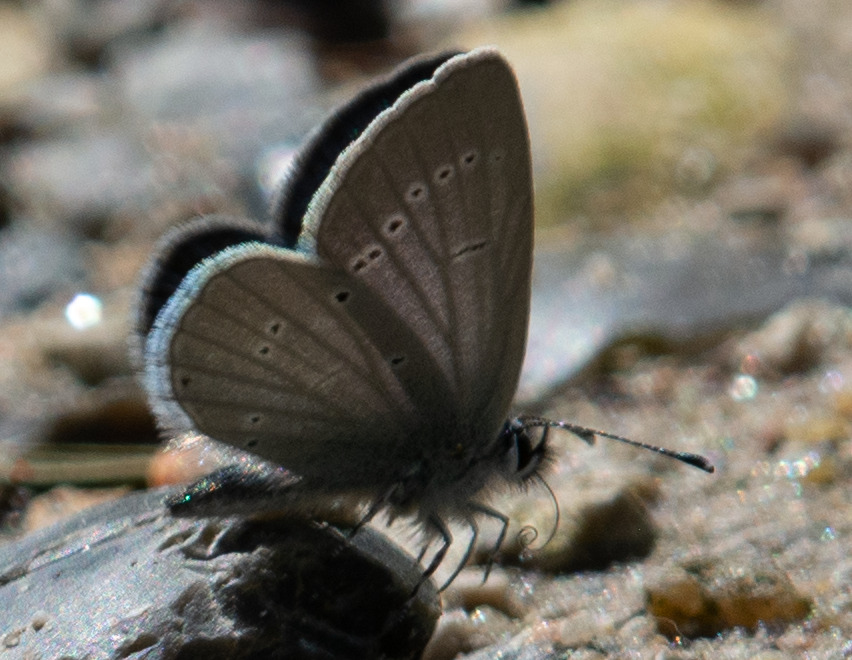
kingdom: Animalia
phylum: Arthropoda
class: Insecta
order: Lepidoptera
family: Lycaenidae
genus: Cupido
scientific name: Cupido minimus
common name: Dværgblåfugl
